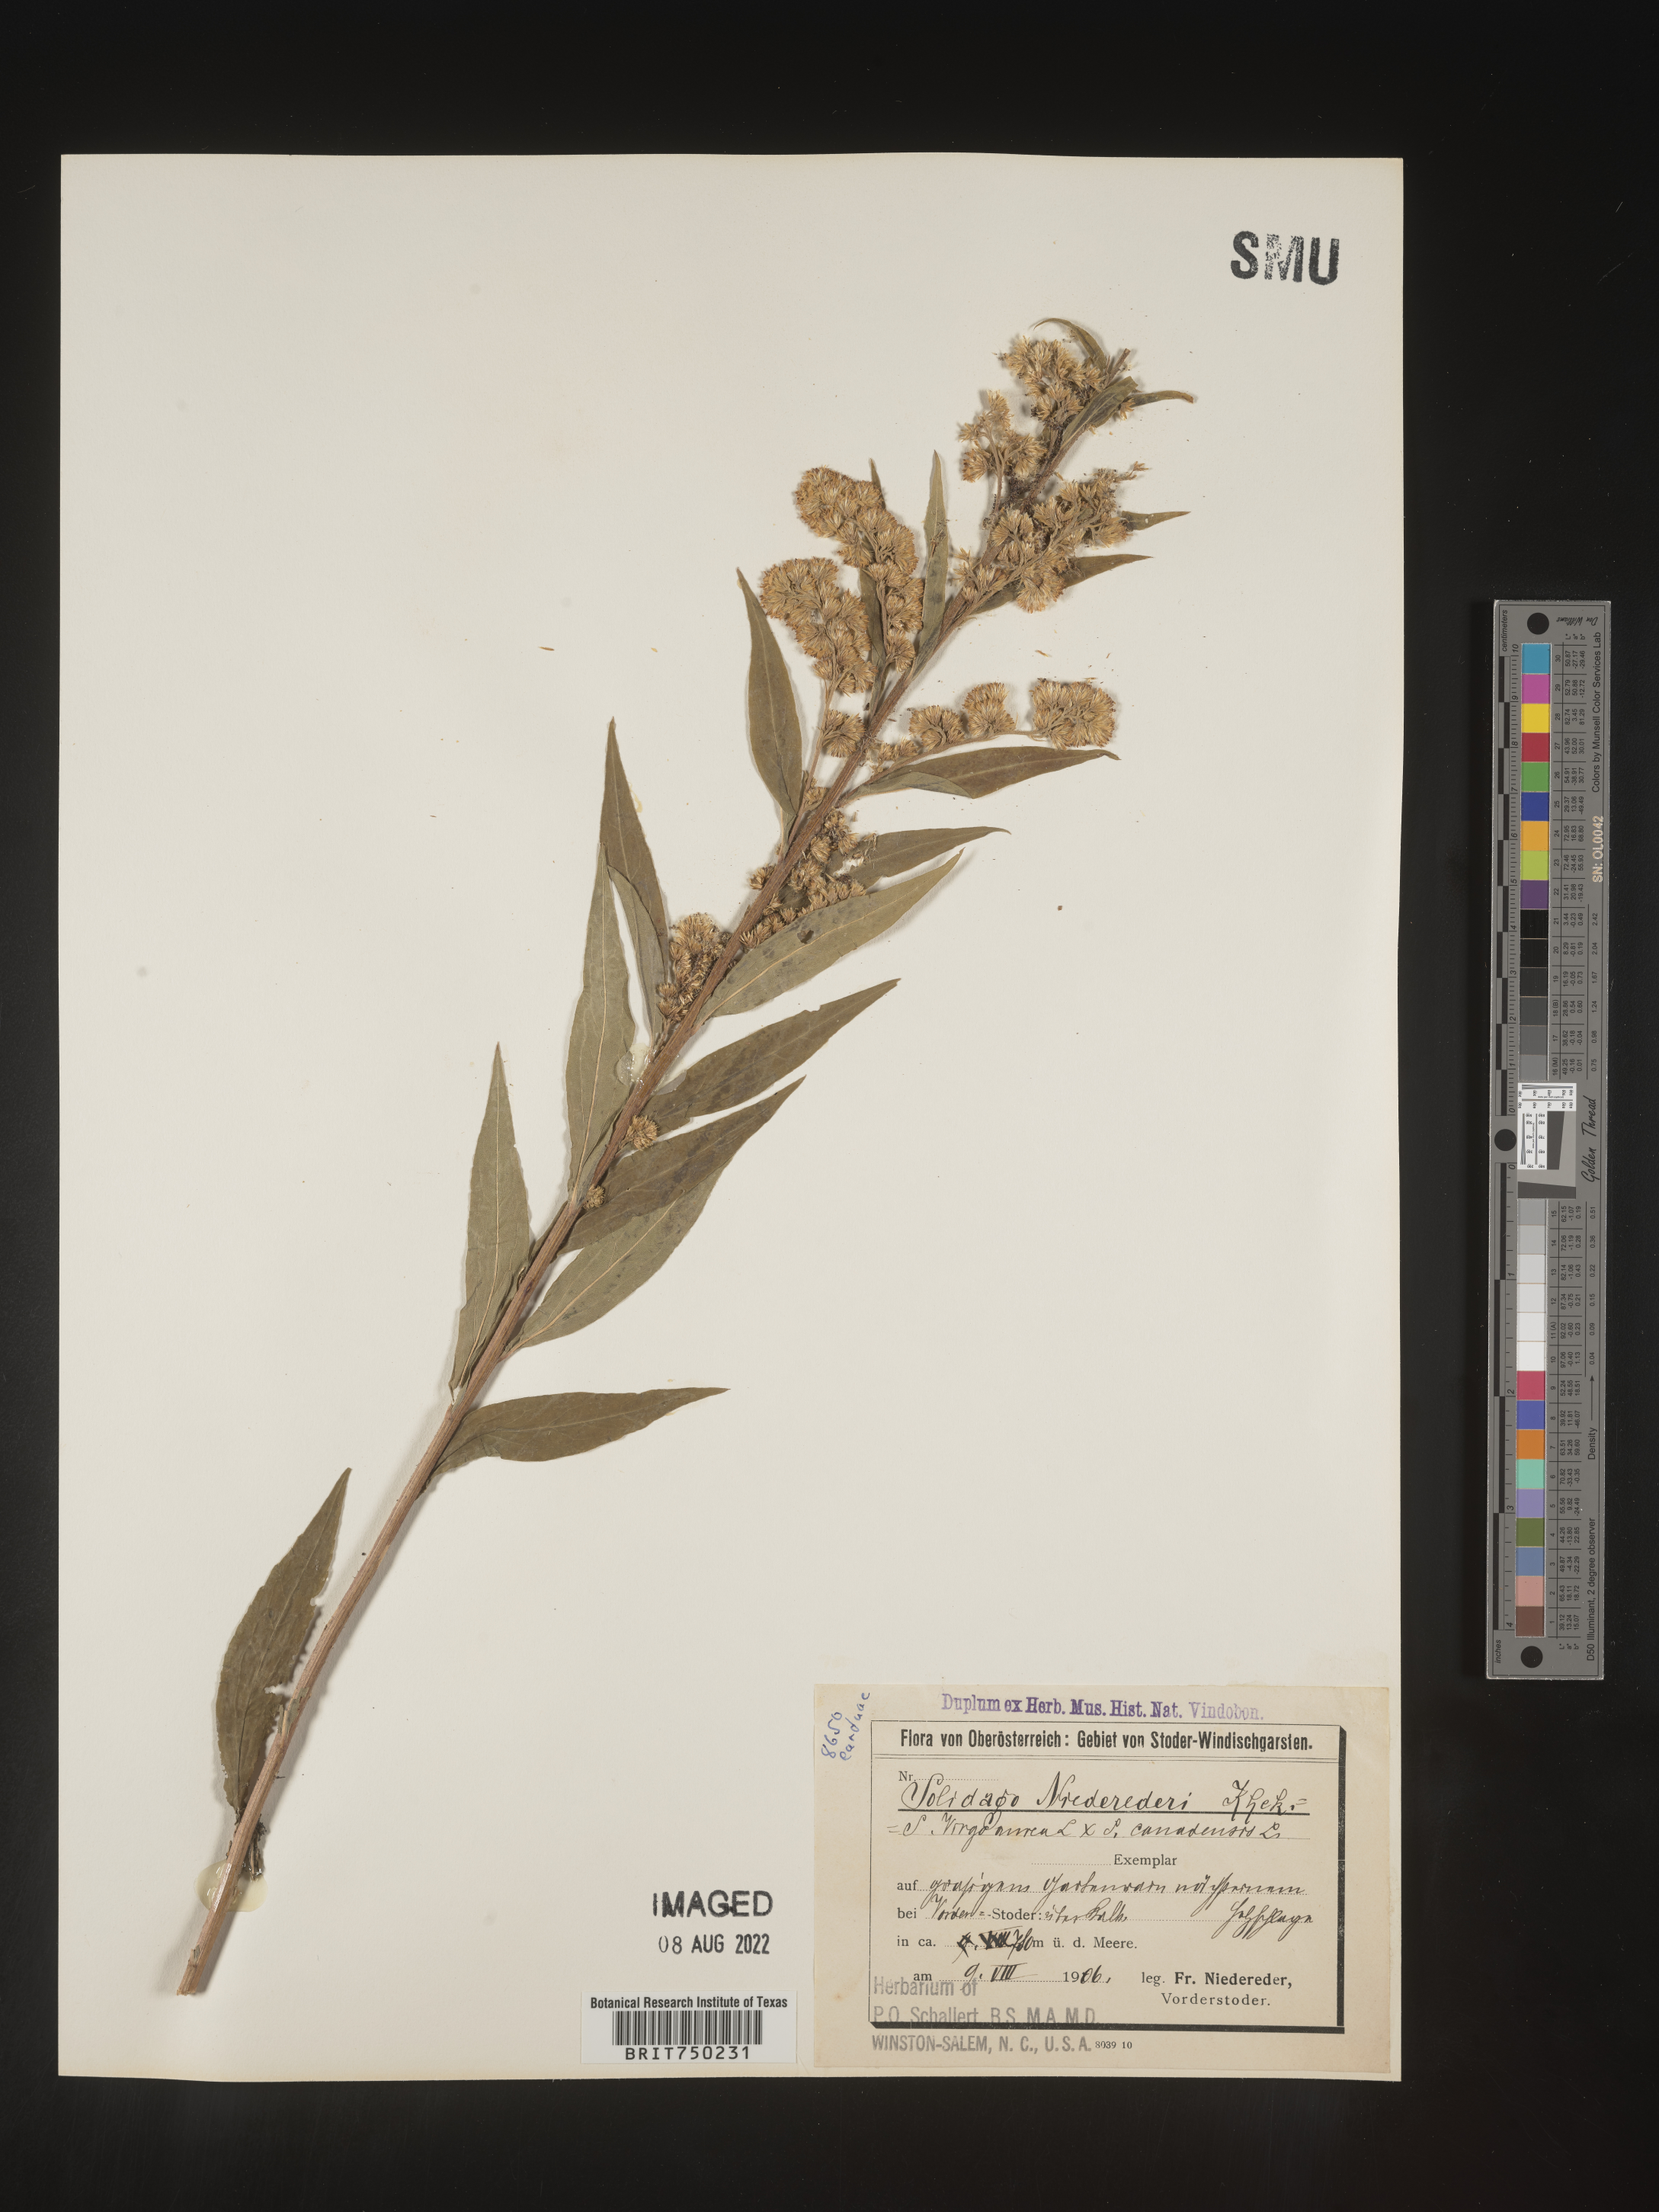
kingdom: Plantae
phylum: Tracheophyta
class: Magnoliopsida
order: Asterales
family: Asteraceae
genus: Solidago
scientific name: Solidago
